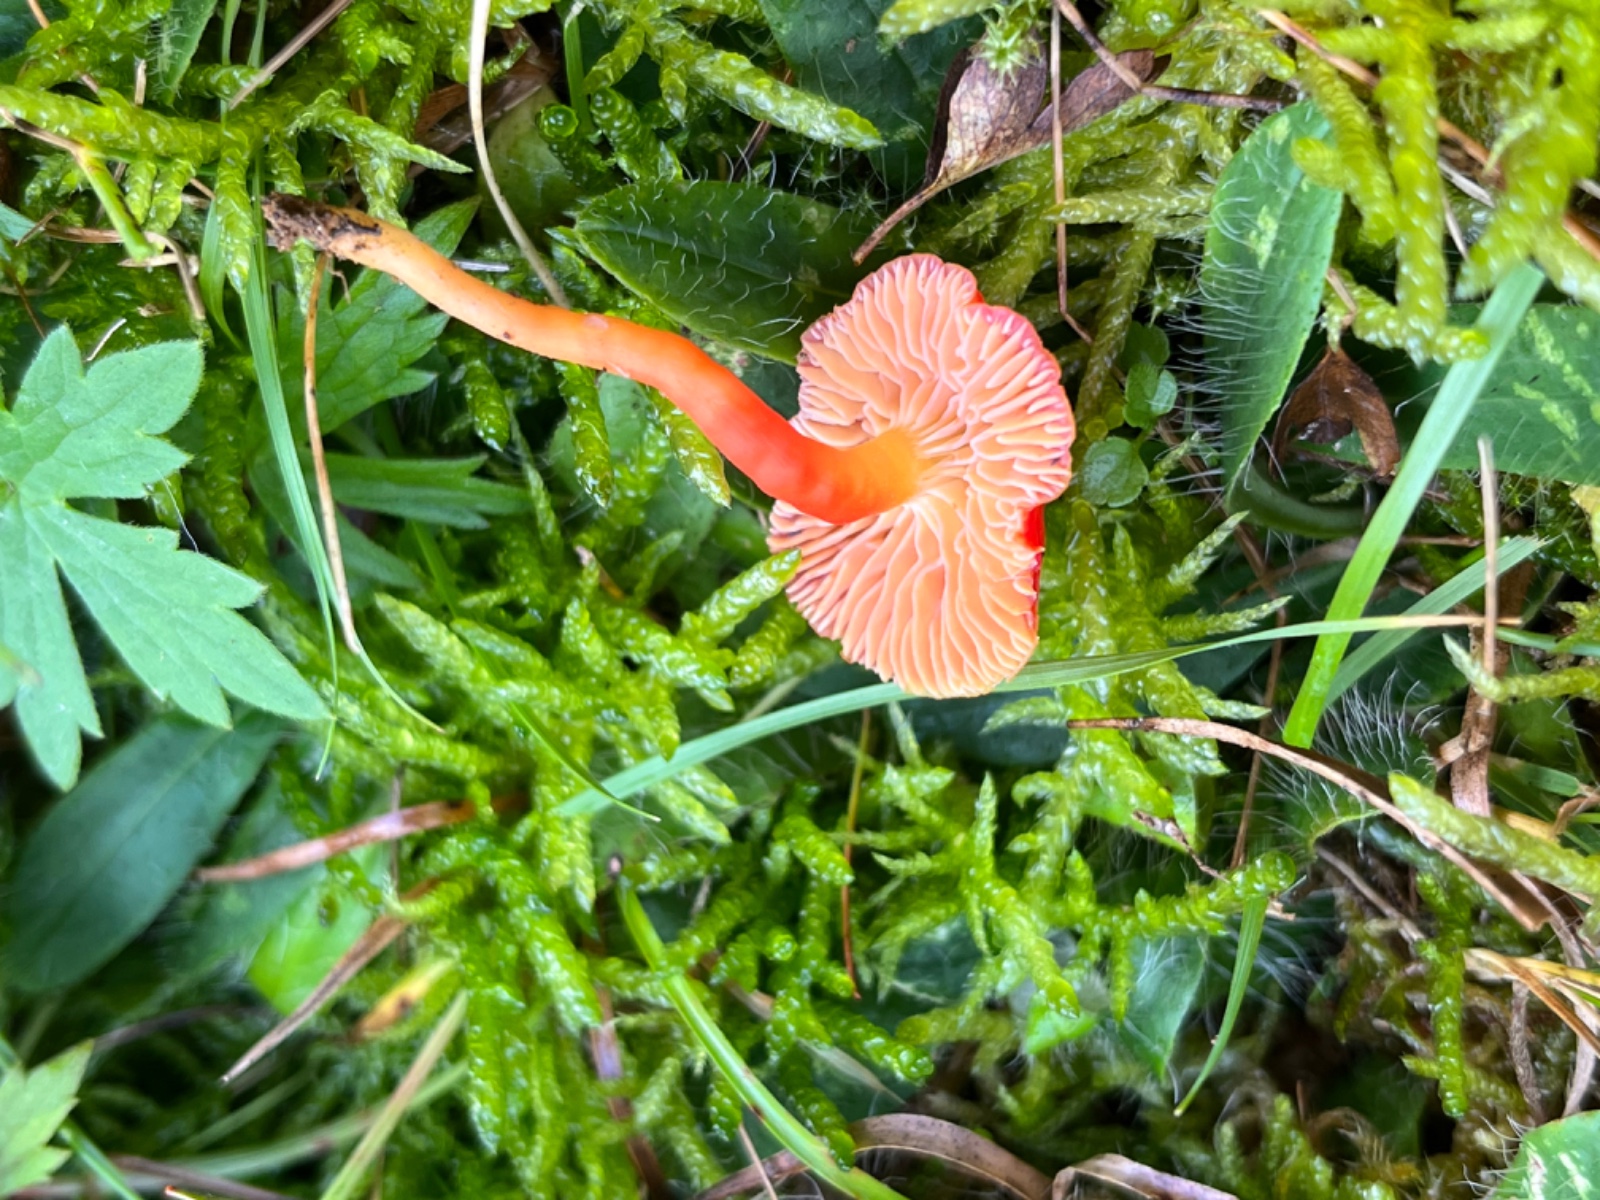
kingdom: Fungi
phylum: Basidiomycota
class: Agaricomycetes
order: Agaricales
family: Hygrophoraceae
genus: Hygrocybe
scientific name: Hygrocybe phaeococcinea
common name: sortdugget vokshat
